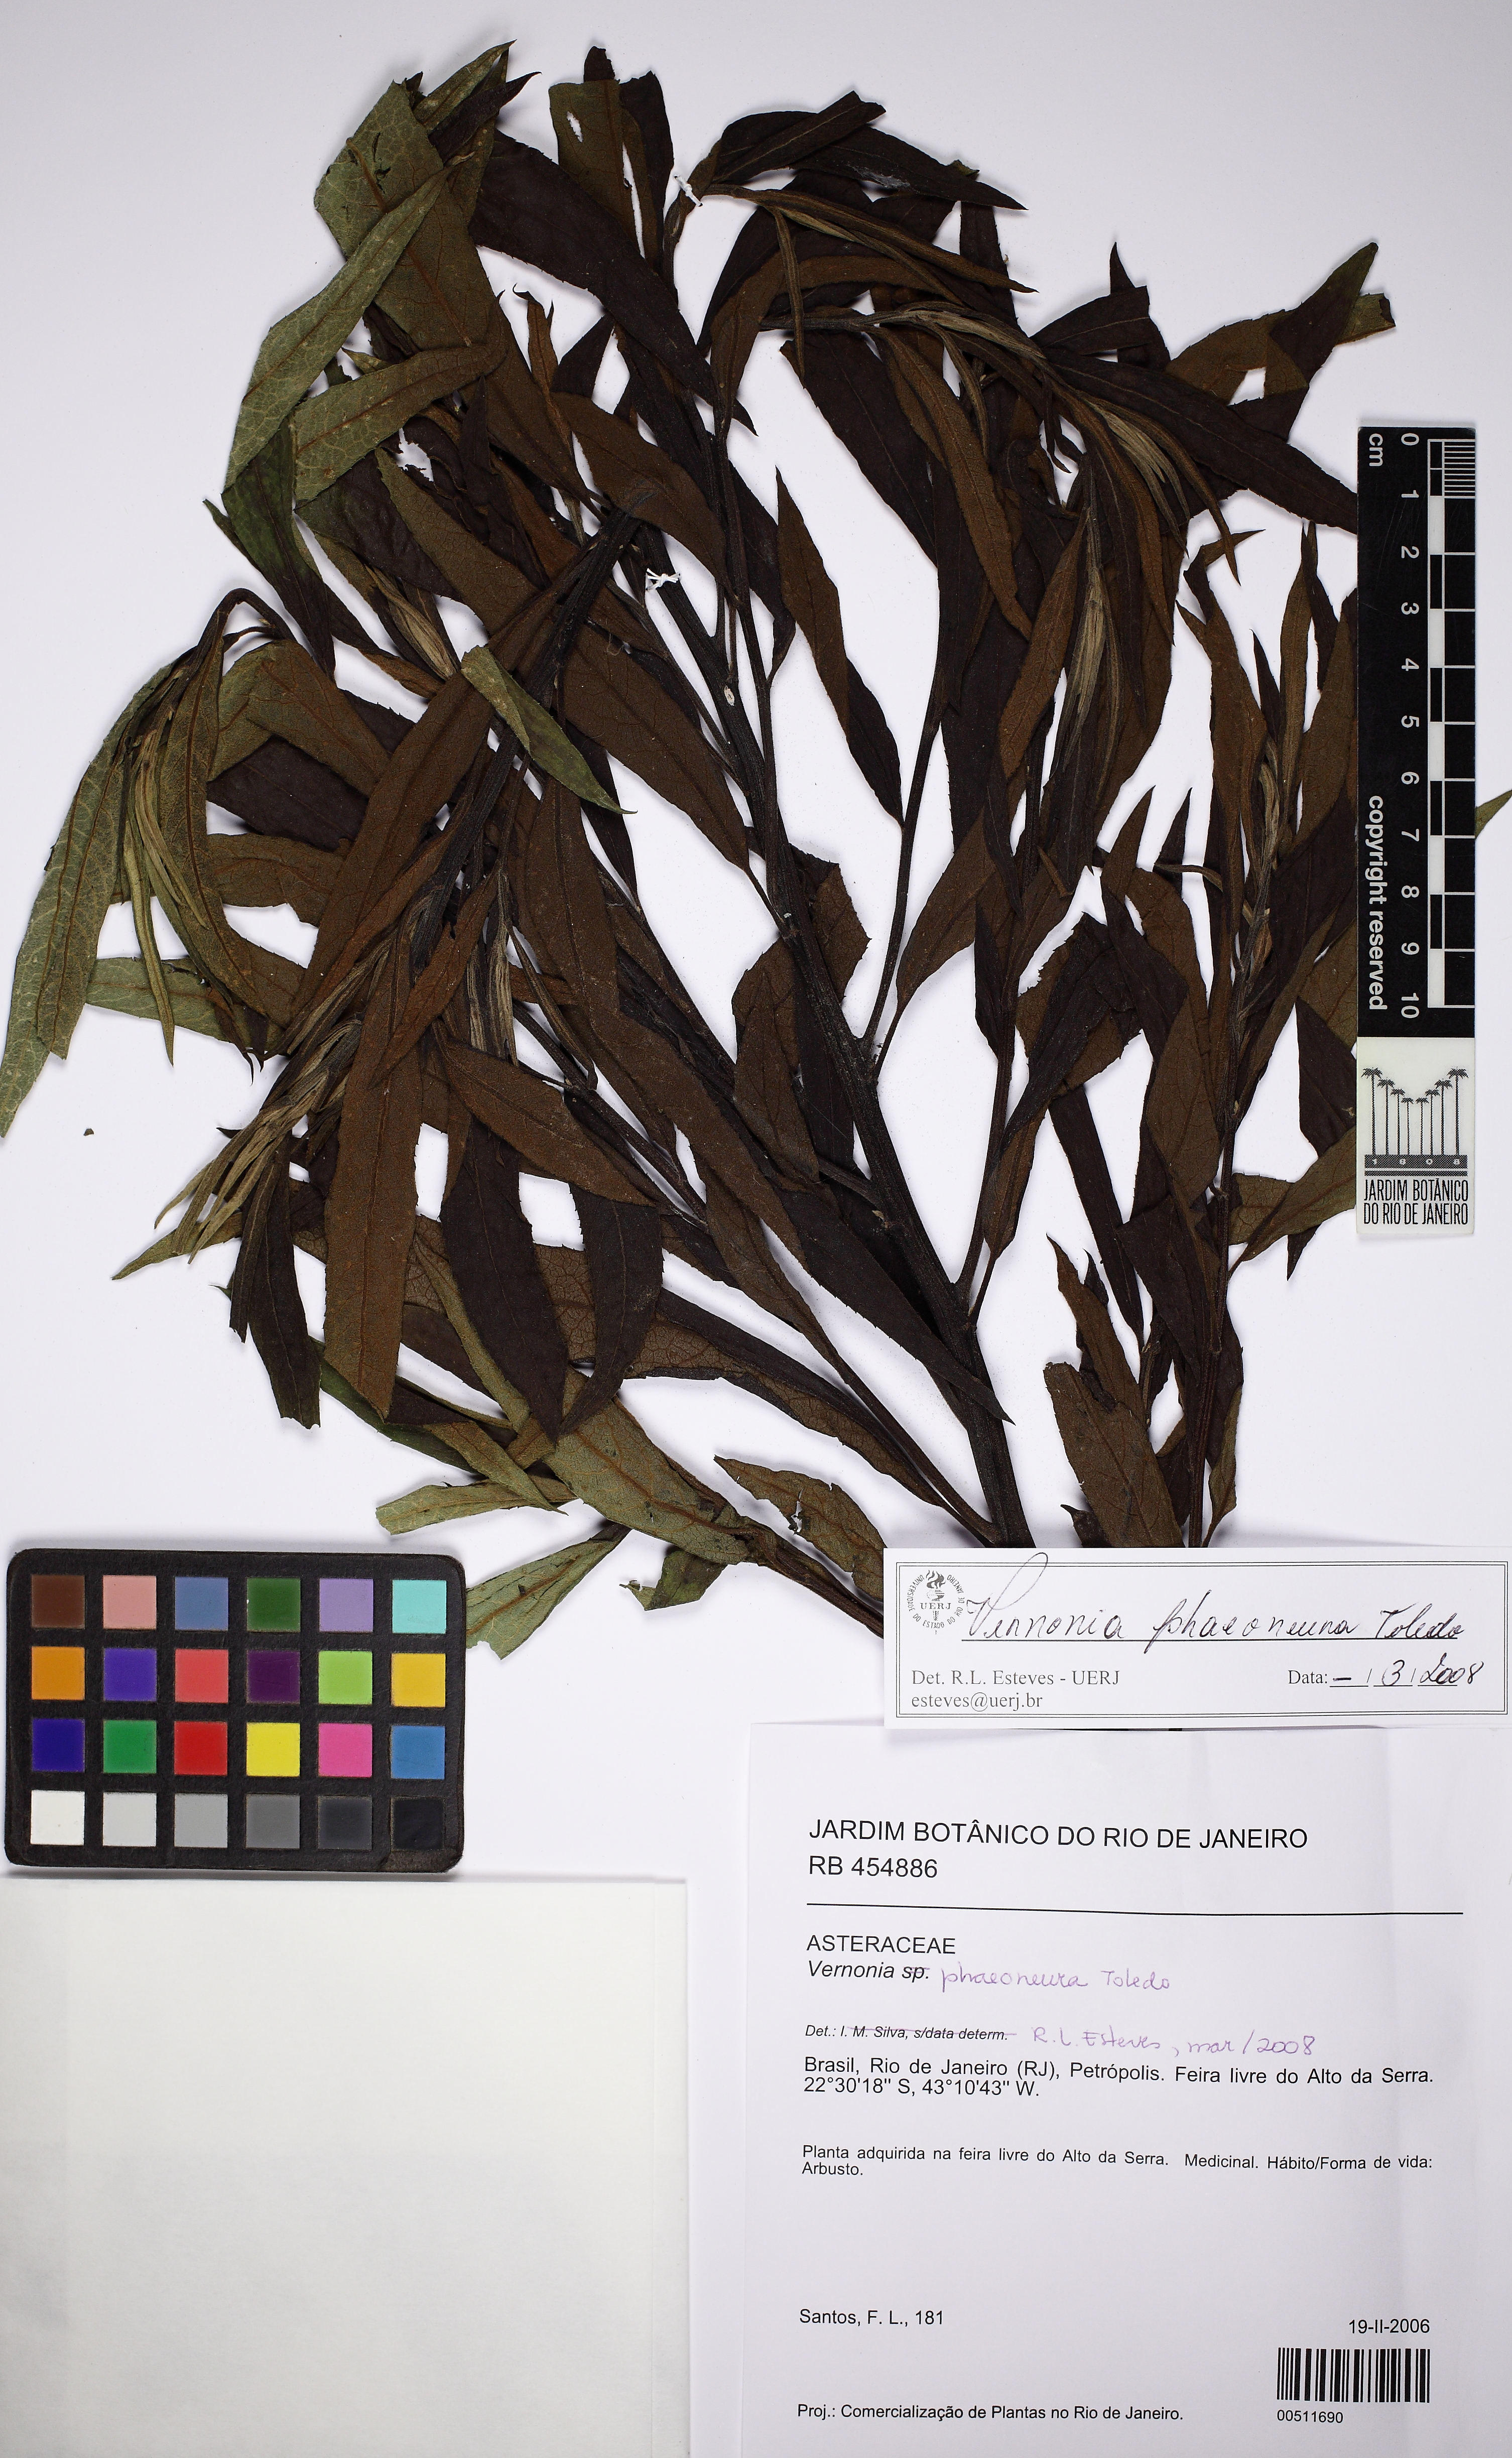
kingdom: Plantae
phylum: Tracheophyta
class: Magnoliopsida
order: Asterales
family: Asteraceae
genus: Vernonanthura
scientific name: Vernonanthura phaeoneura
